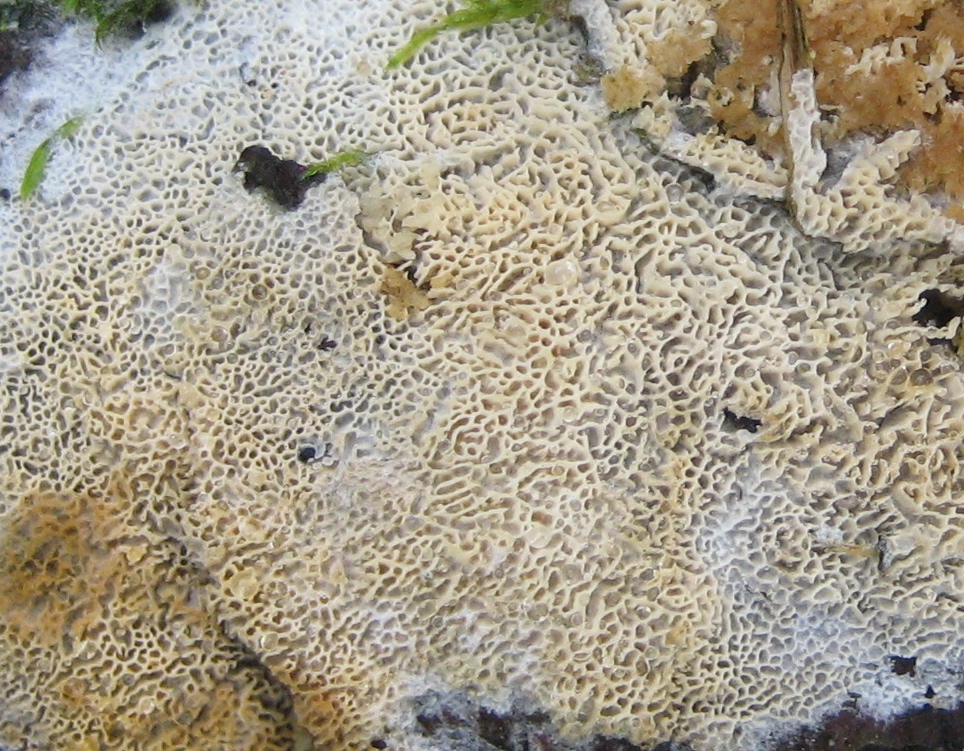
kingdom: Fungi
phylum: Basidiomycota
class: Agaricomycetes
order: Hymenochaetales
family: Schizoporaceae
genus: Xylodon
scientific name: Xylodon
